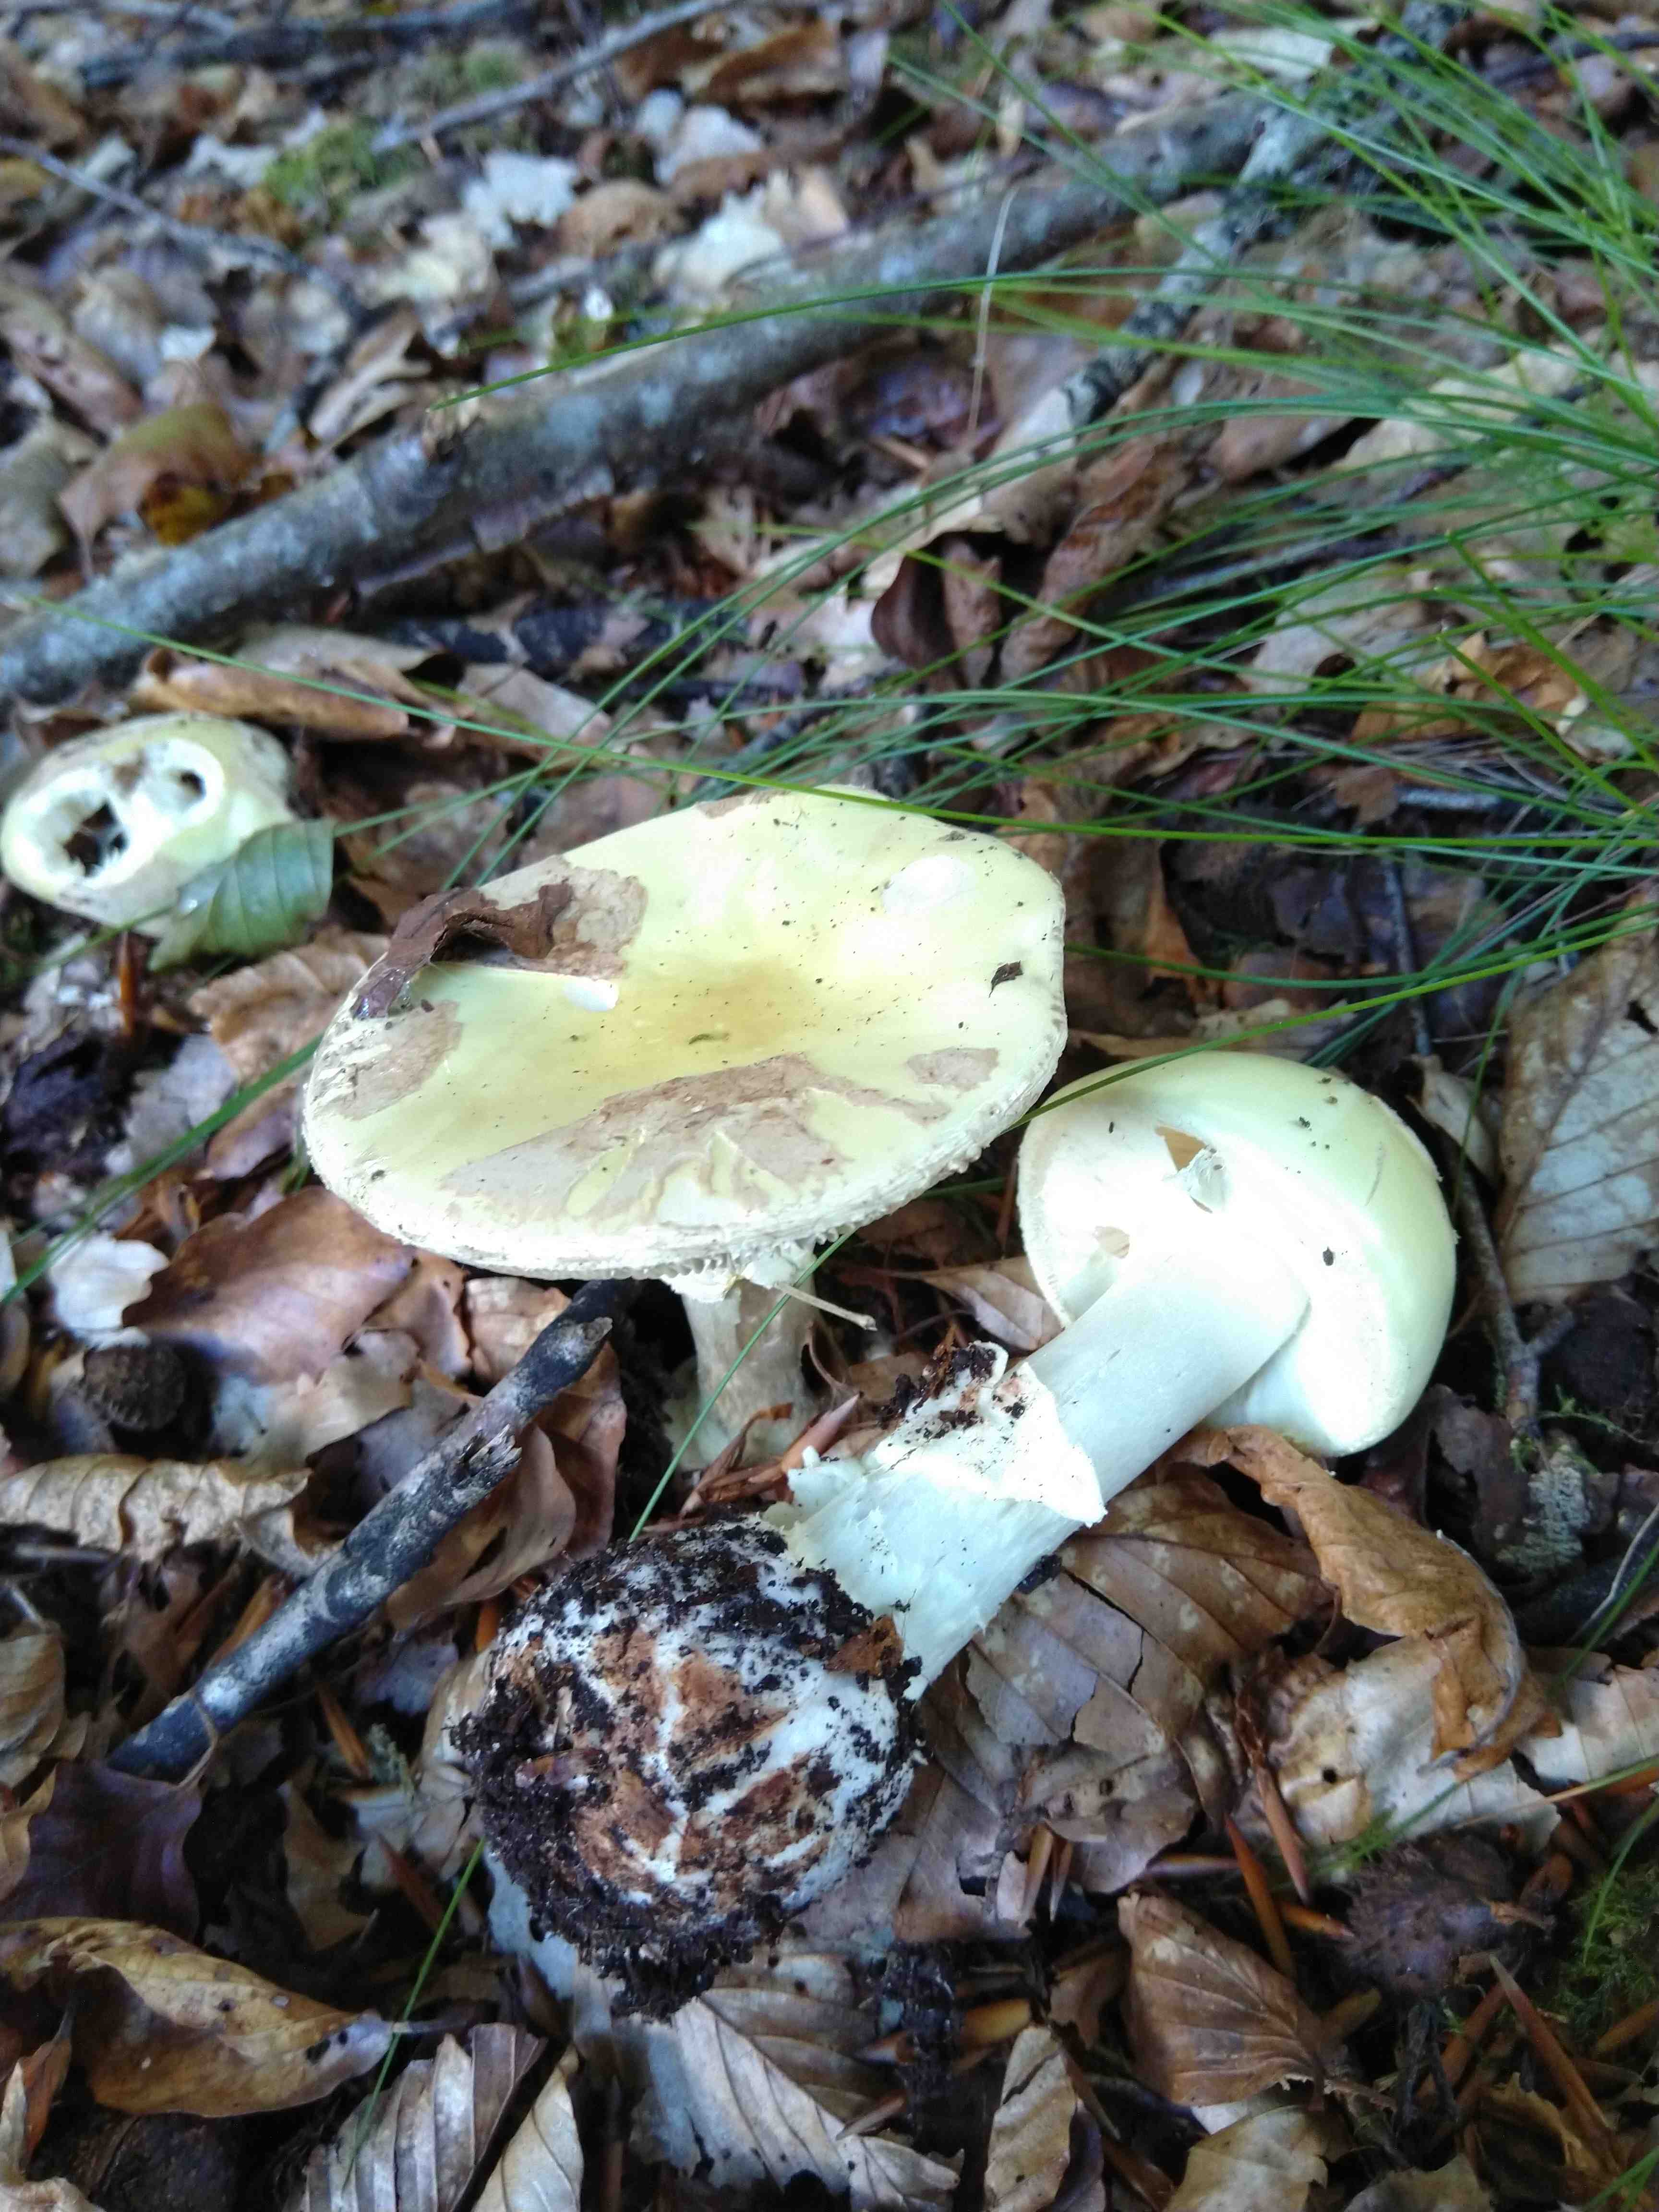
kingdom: Fungi
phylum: Basidiomycota
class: Agaricomycetes
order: Agaricales
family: Amanitaceae
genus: Amanita
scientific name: Amanita citrina
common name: kugleknoldet fluesvamp
